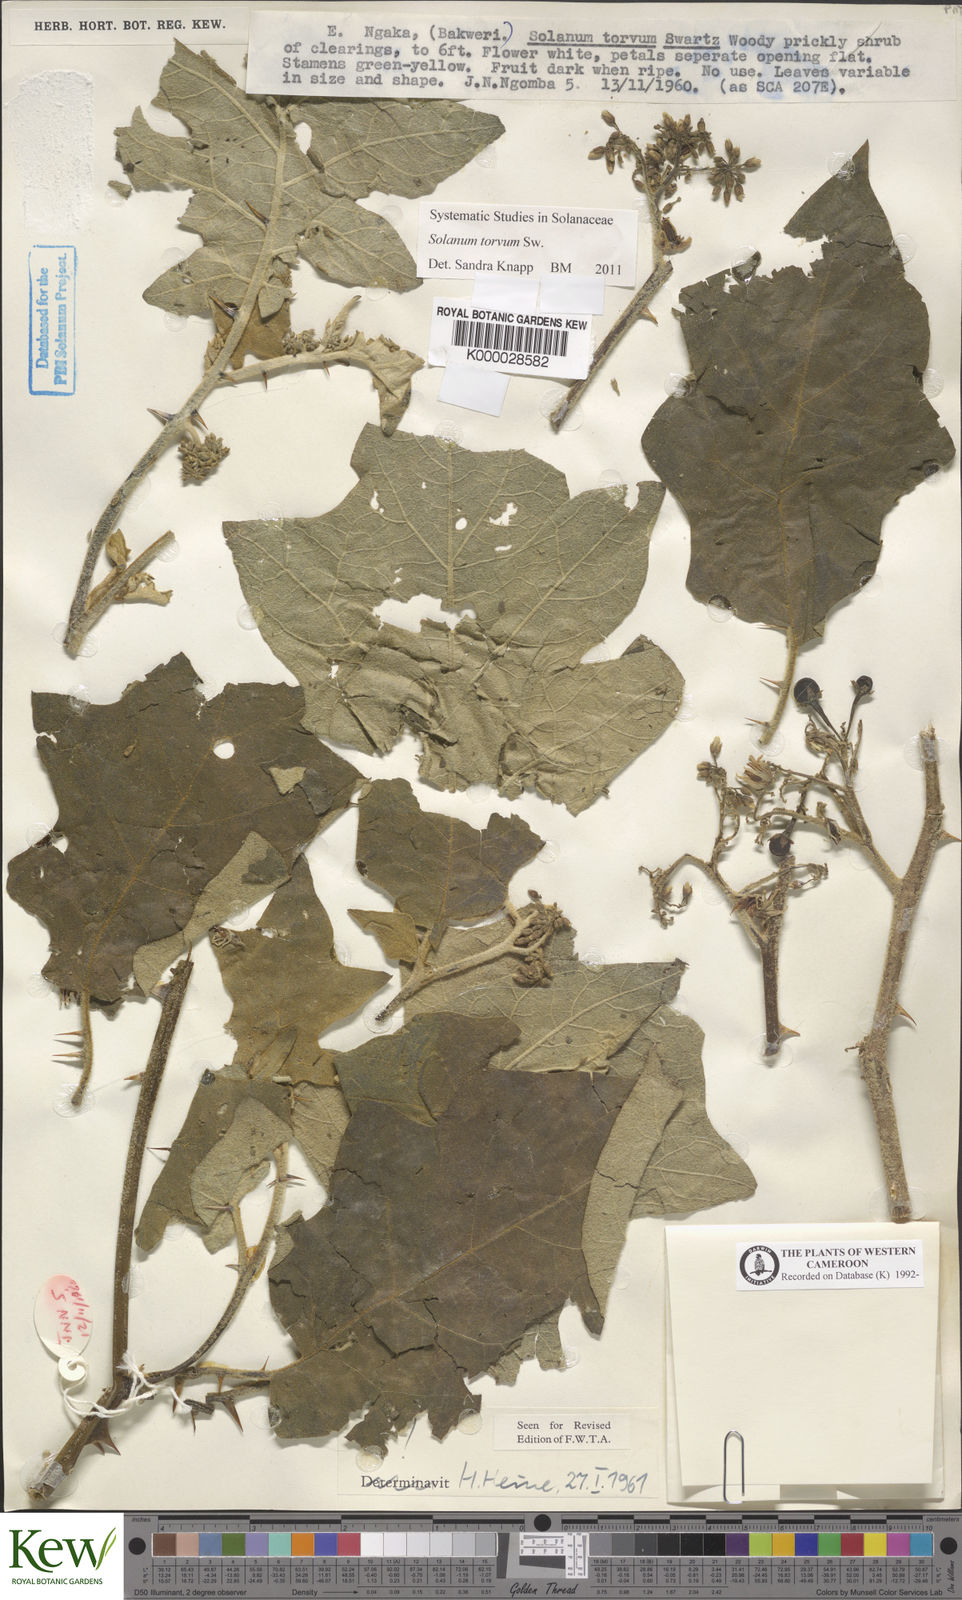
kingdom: Plantae
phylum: Tracheophyta
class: Magnoliopsida
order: Solanales
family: Solanaceae
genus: Solanum
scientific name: Solanum torvum
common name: Turkey berry
